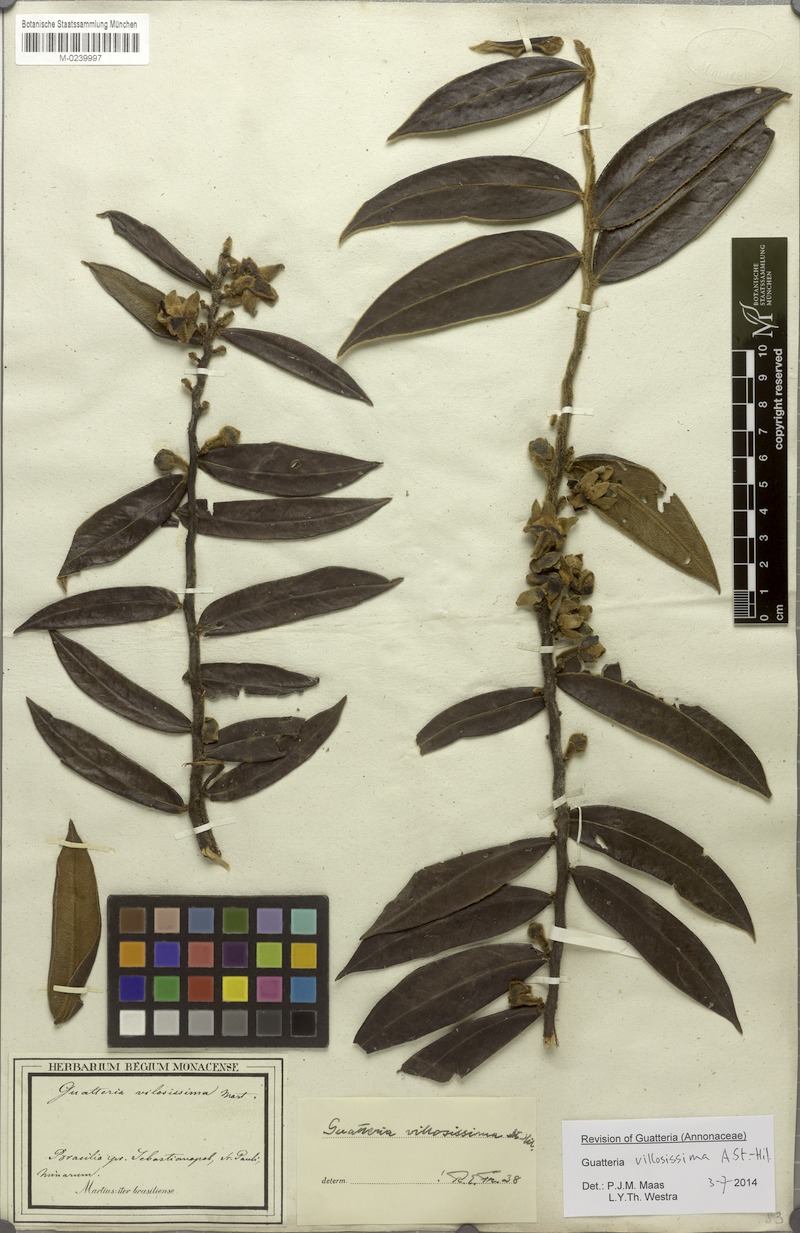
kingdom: Plantae
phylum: Tracheophyta
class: Magnoliopsida
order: Magnoliales
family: Annonaceae
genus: Guatteria
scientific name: Guatteria villosissima
